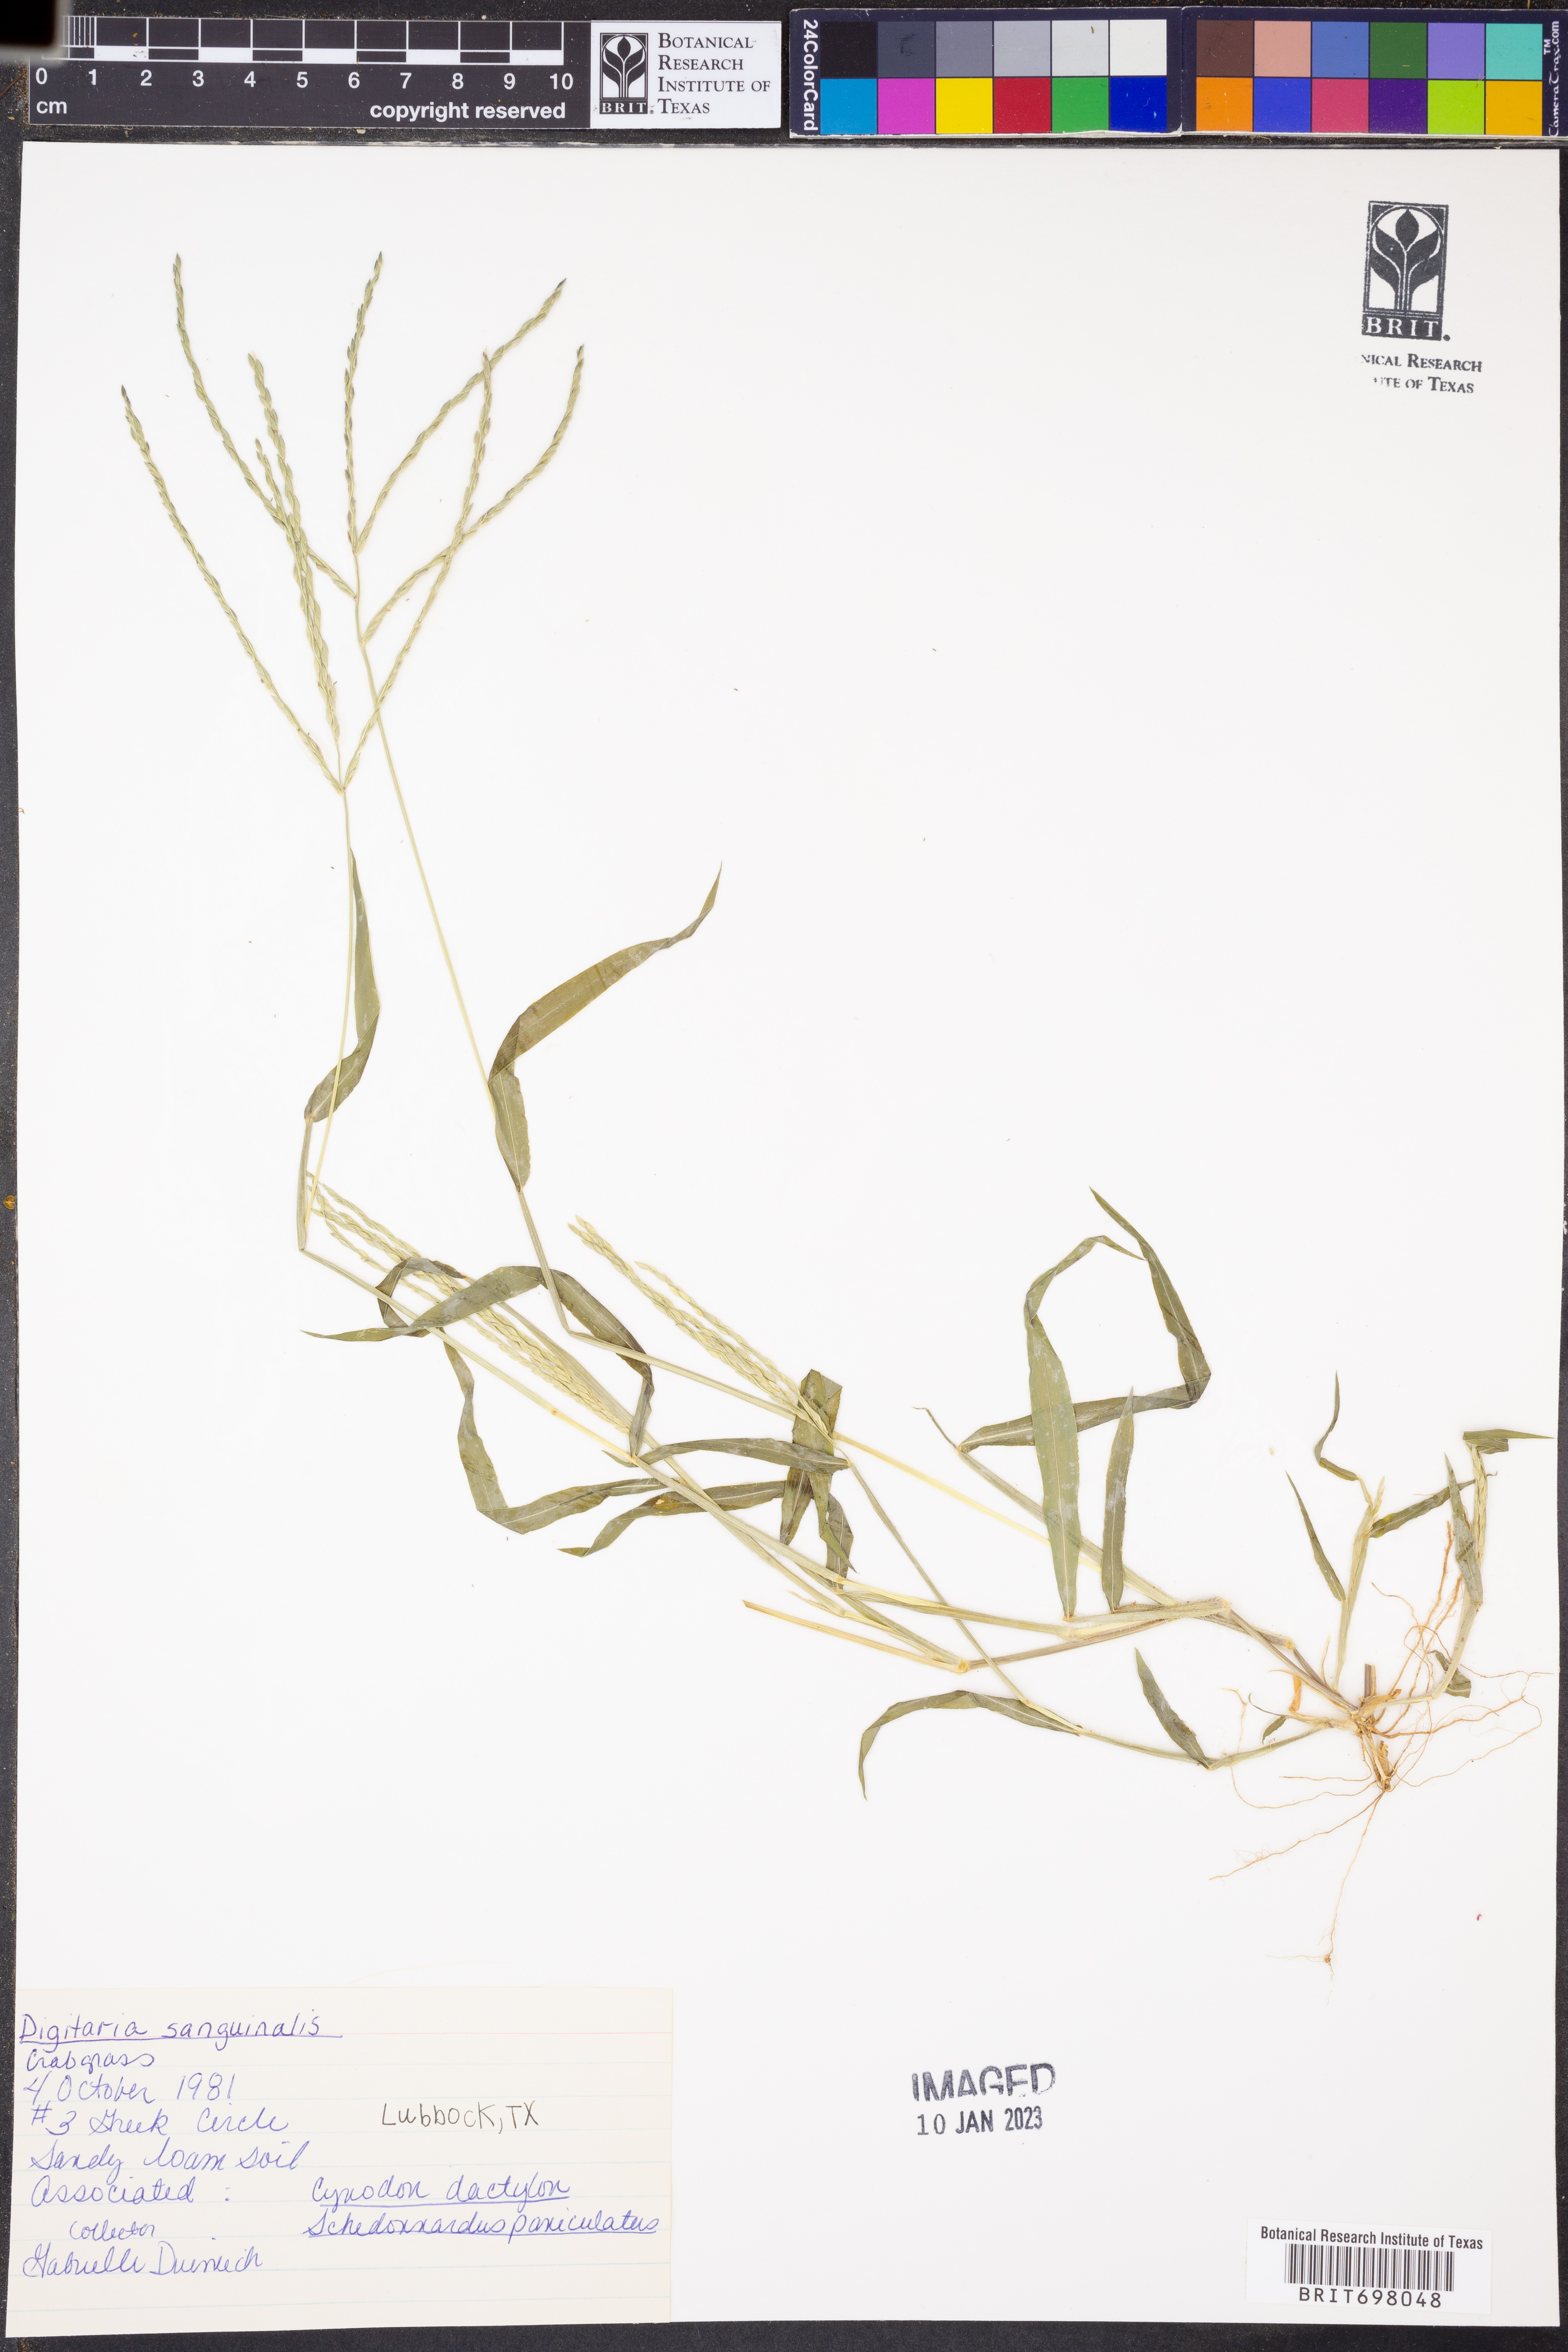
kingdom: Plantae
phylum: Tracheophyta
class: Liliopsida
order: Poales
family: Poaceae
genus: Digitaria
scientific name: Digitaria sanguinalis
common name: Hairy crabgrass
